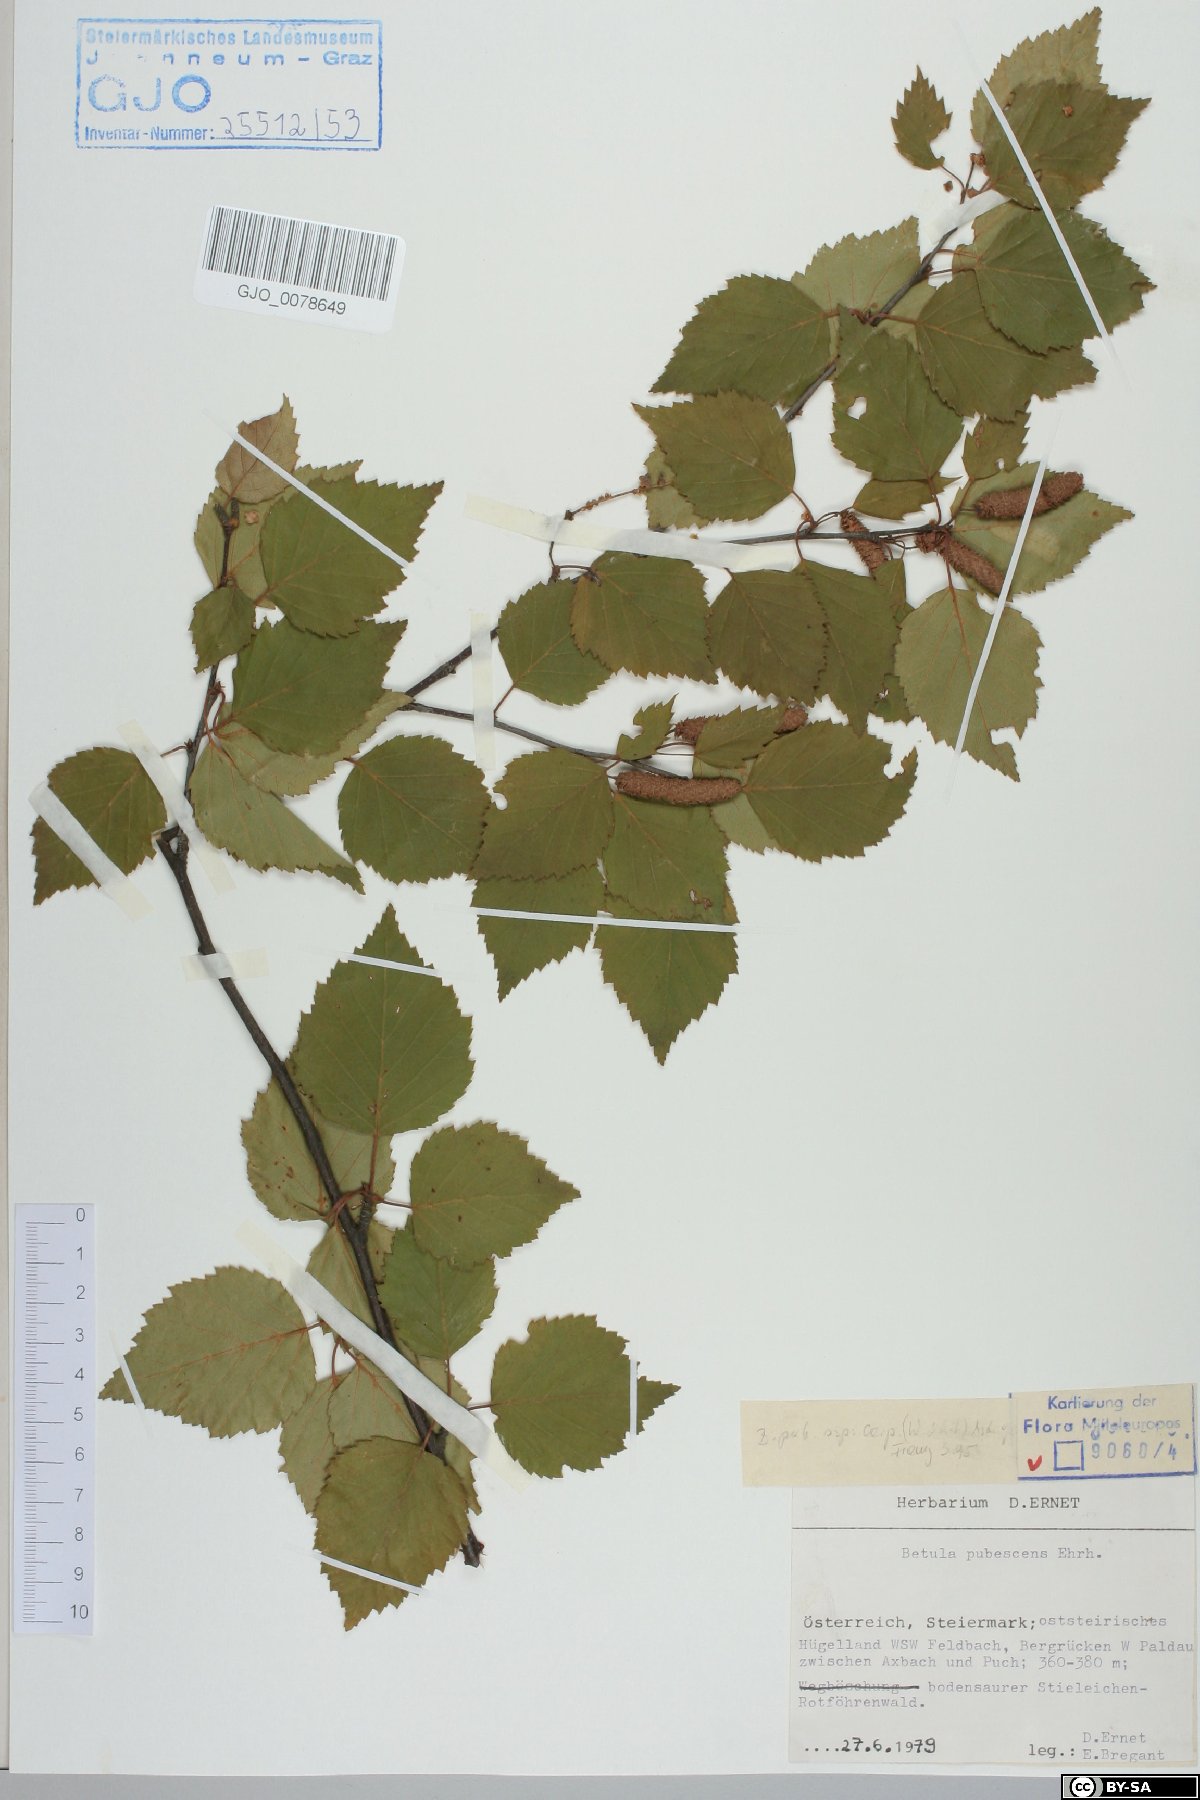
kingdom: Plantae
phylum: Tracheophyta
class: Magnoliopsida
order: Fagales
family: Betulaceae
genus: Betula
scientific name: Betula pubescens
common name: Downy birch
